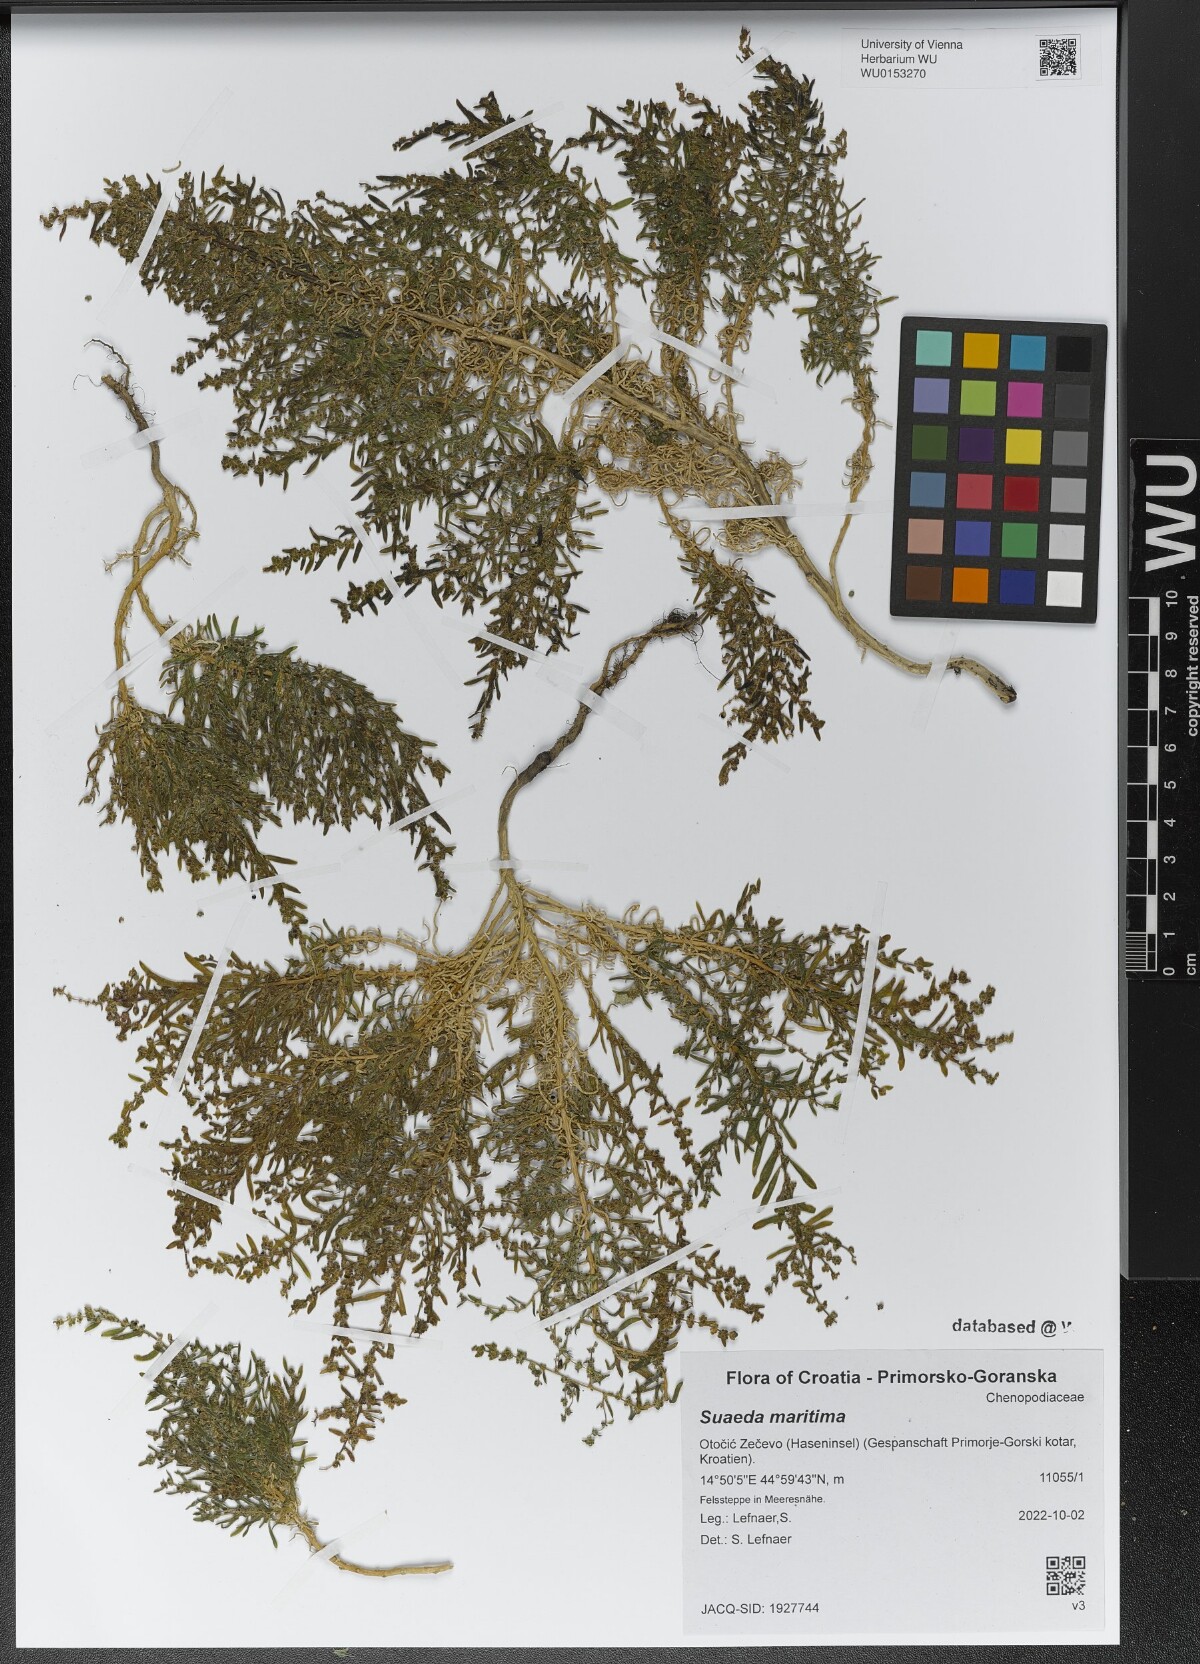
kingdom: Plantae
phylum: Tracheophyta
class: Magnoliopsida
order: Caryophyllales
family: Amaranthaceae
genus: Suaeda
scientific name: Suaeda maritima
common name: Annual sea-blite
